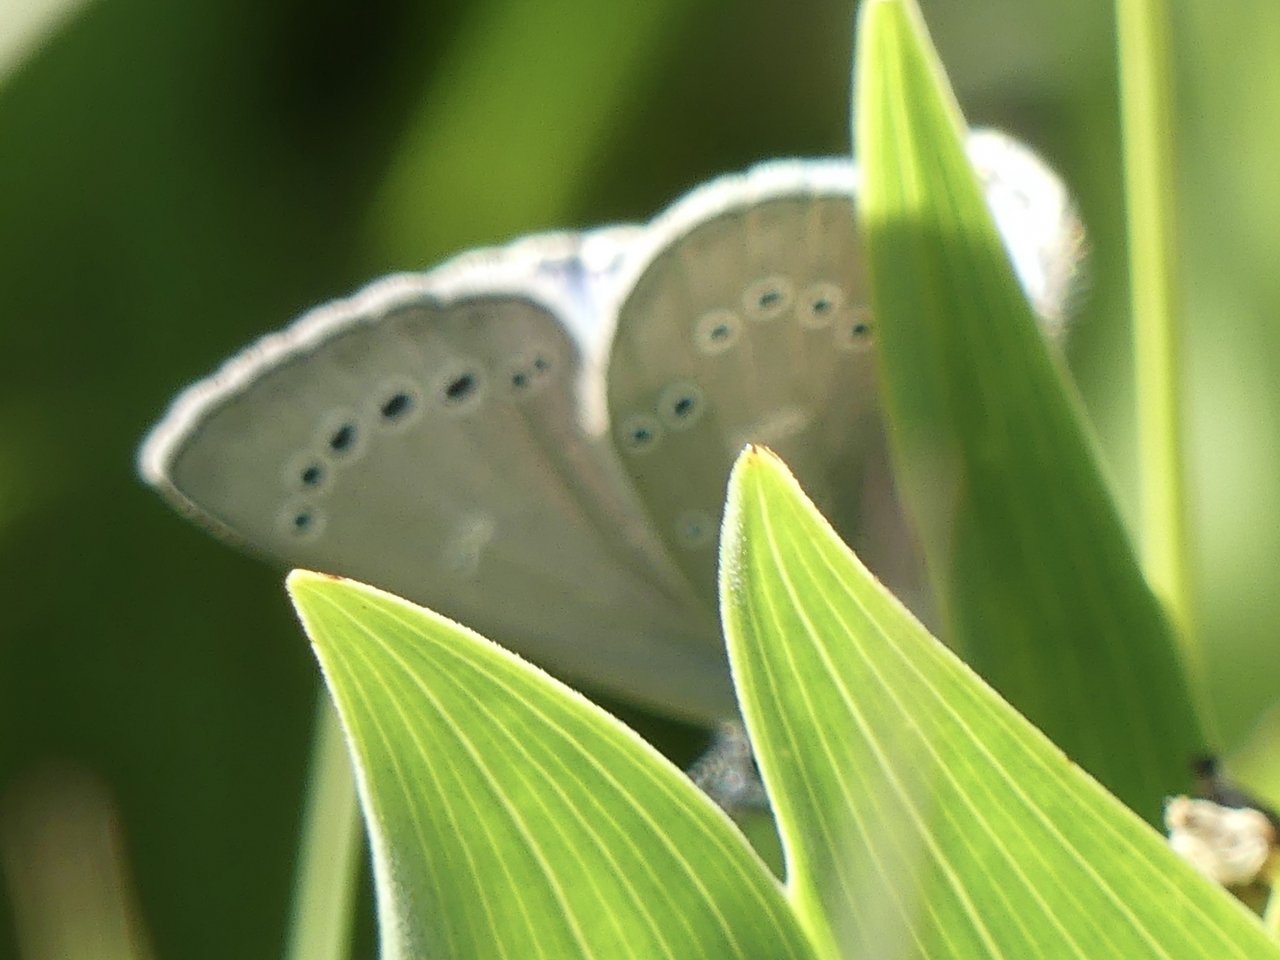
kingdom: Animalia
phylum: Arthropoda
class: Insecta
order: Lepidoptera
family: Lycaenidae
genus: Glaucopsyche
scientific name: Glaucopsyche lygdamus
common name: Silvery Blue
